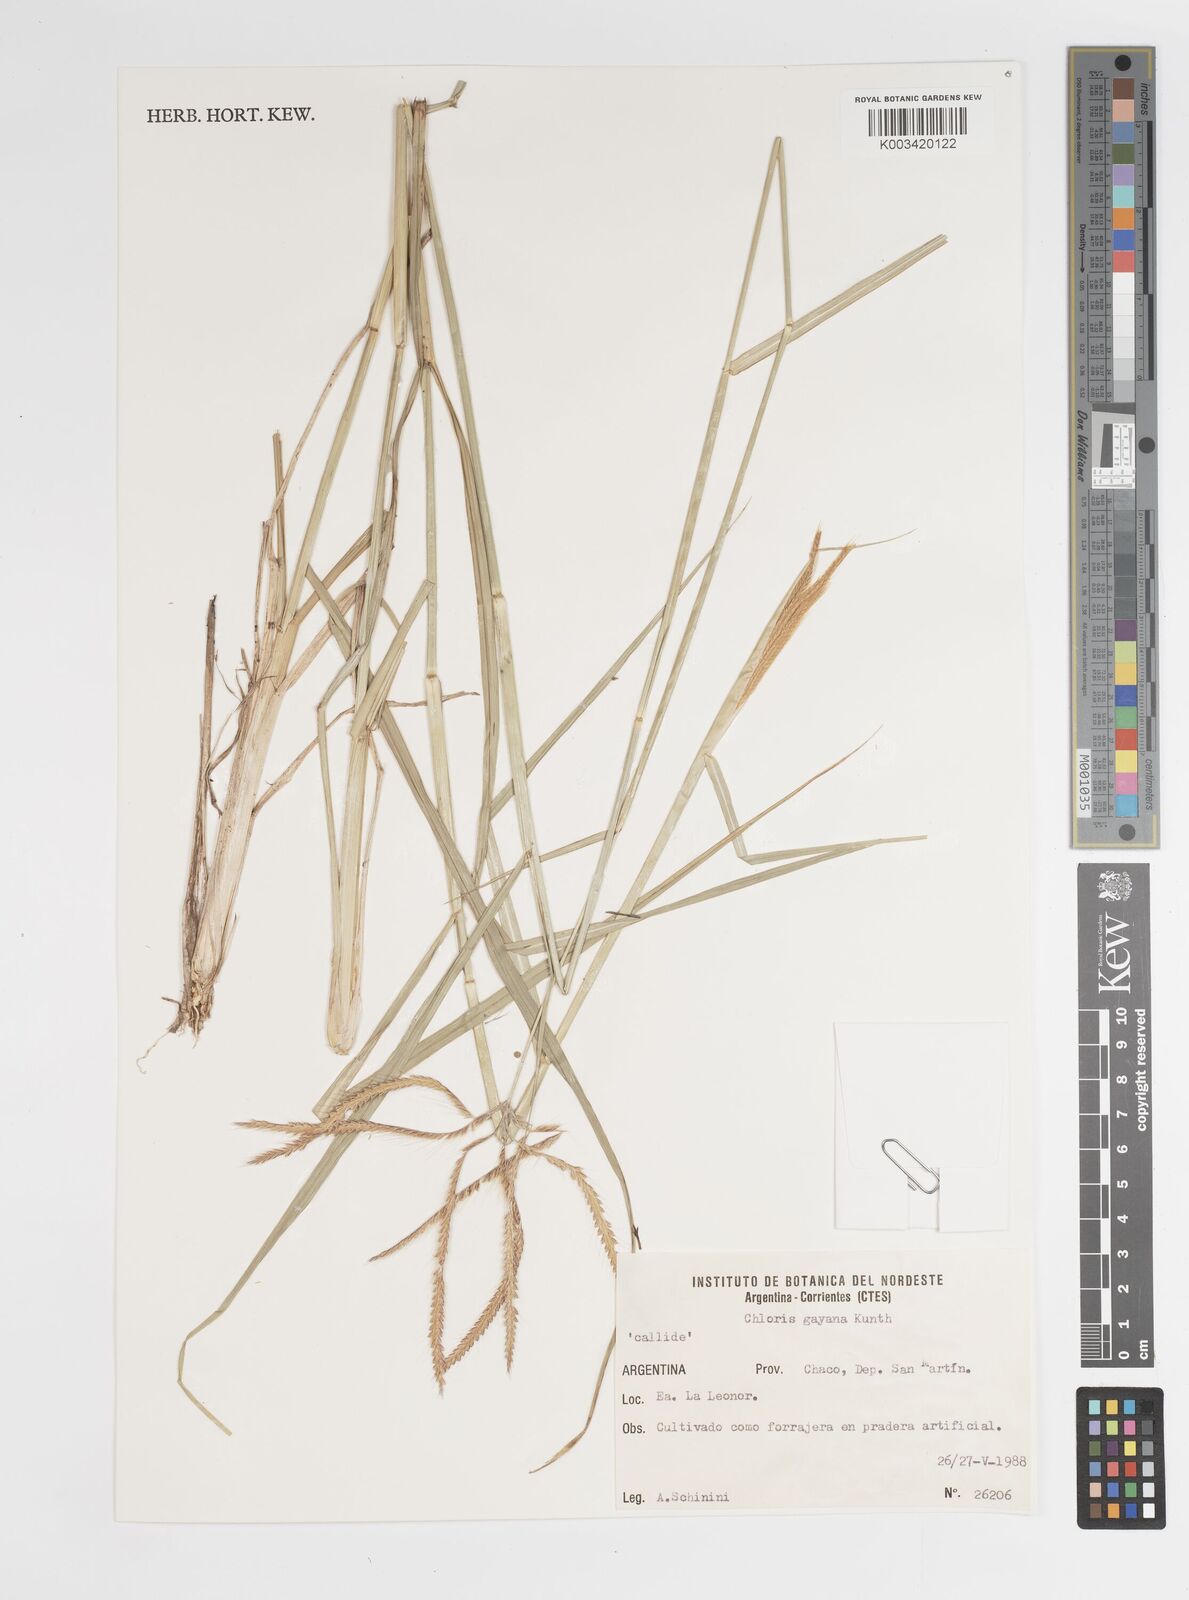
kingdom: Plantae
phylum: Tracheophyta
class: Liliopsida
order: Poales
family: Poaceae
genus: Chloris
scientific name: Chloris gayana
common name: Rhodes grass
